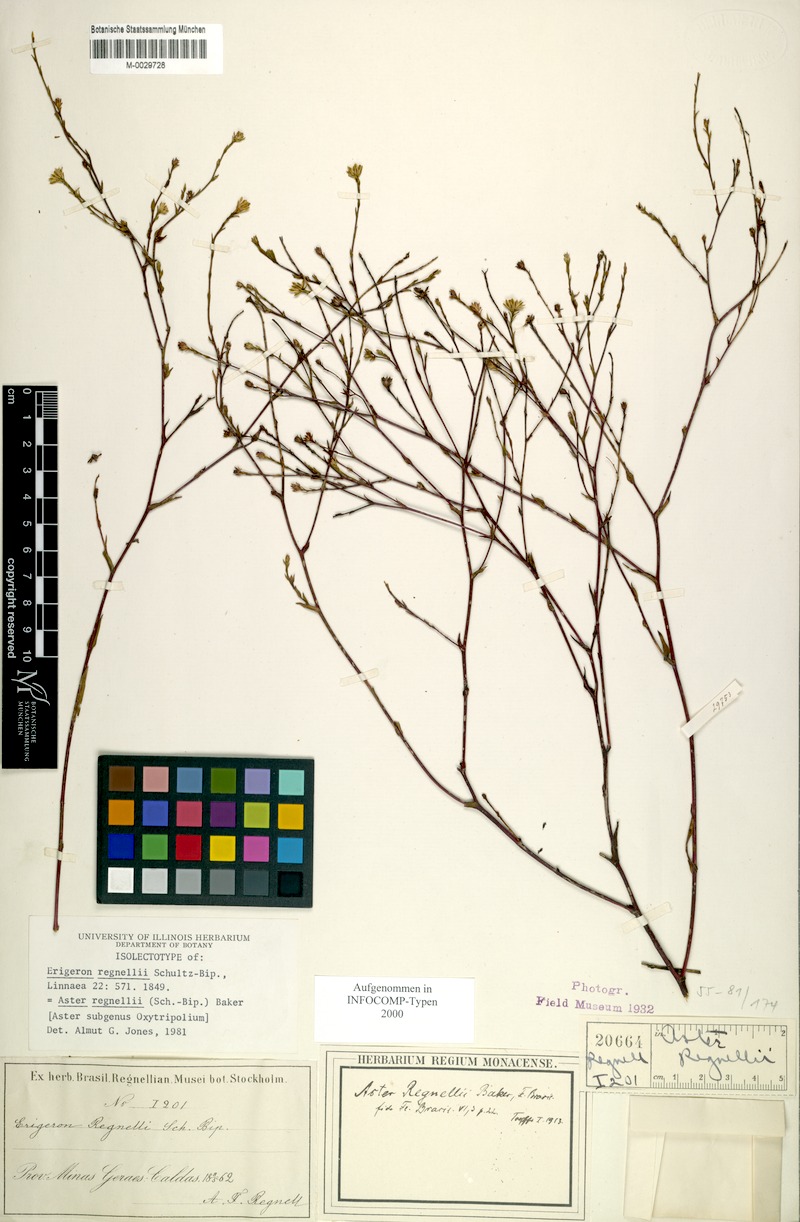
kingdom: Plantae
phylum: Tracheophyta
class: Magnoliopsida
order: Asterales
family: Asteraceae
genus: Symphyotrichum
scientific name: Symphyotrichum regnellii
